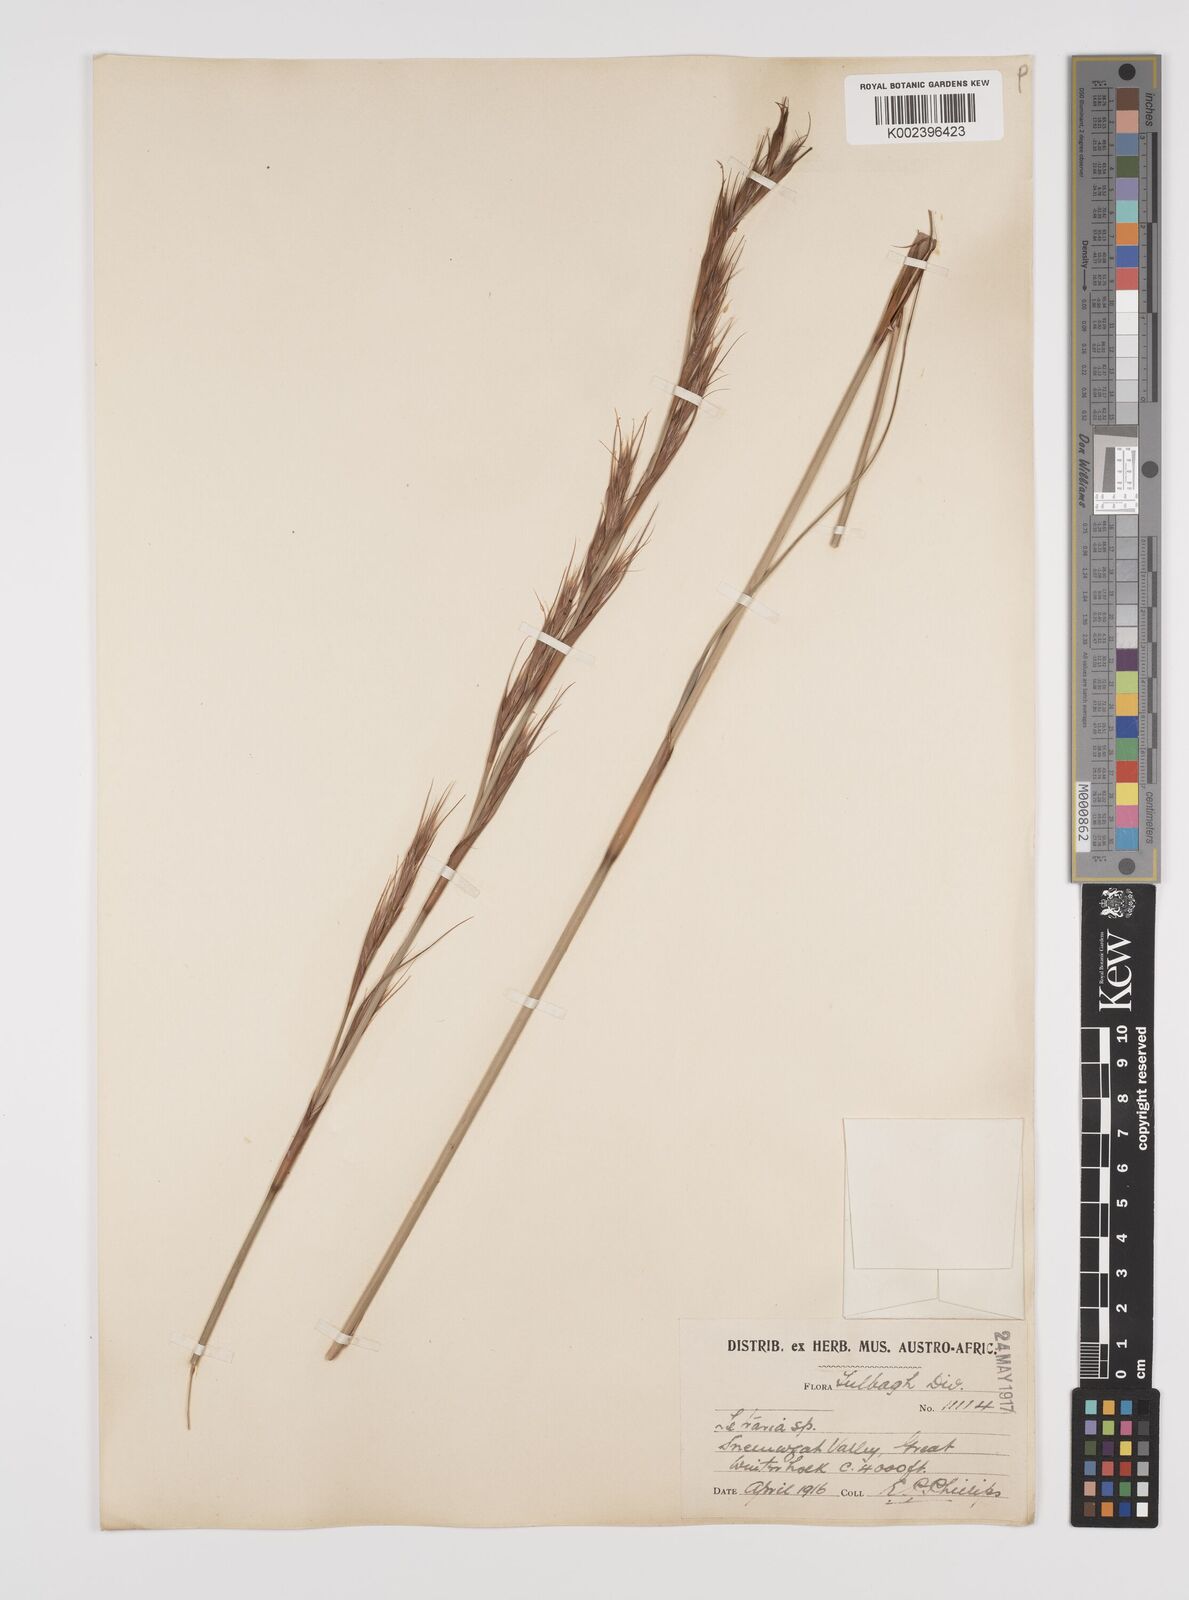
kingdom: Plantae
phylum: Tracheophyta
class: Liliopsida
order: Poales
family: Cyperaceae
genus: Tetraria
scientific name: Tetraria
